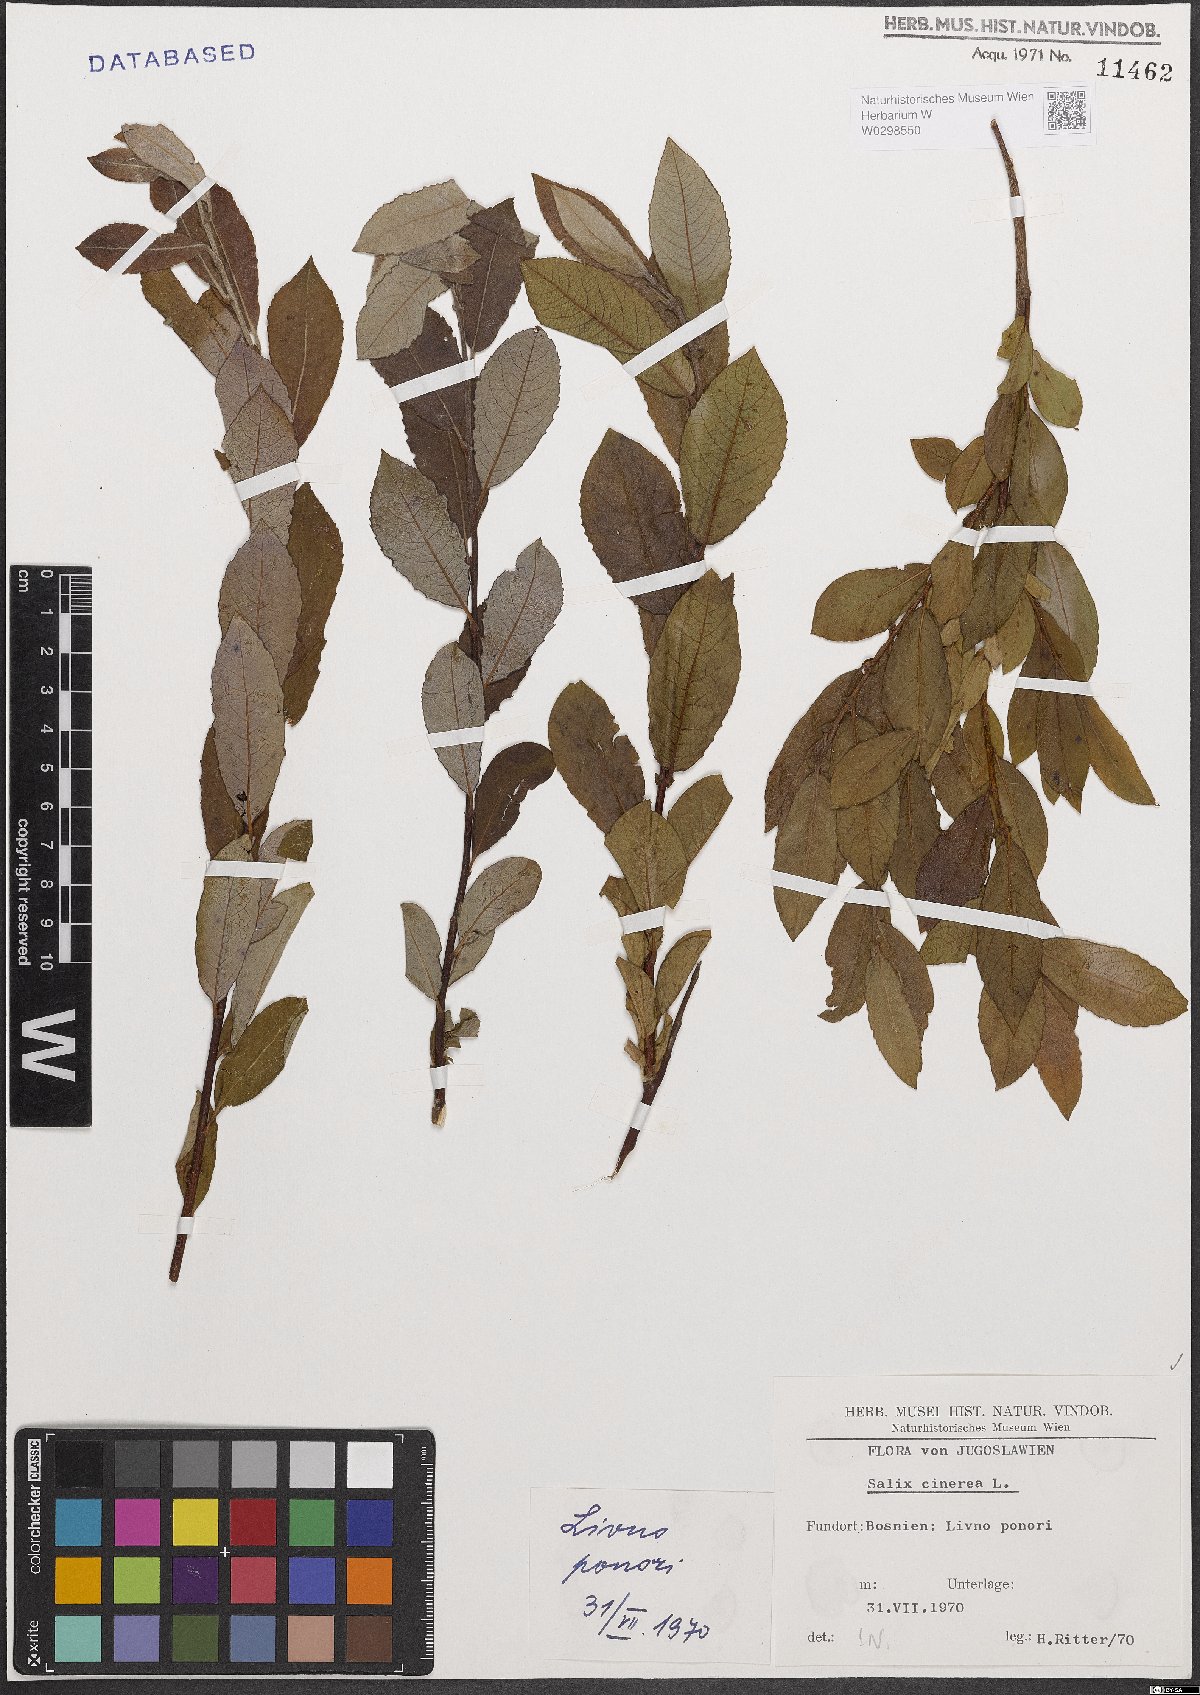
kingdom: Plantae
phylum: Tracheophyta
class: Magnoliopsida
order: Malpighiales
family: Salicaceae
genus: Salix
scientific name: Salix cinerea
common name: Common sallow
